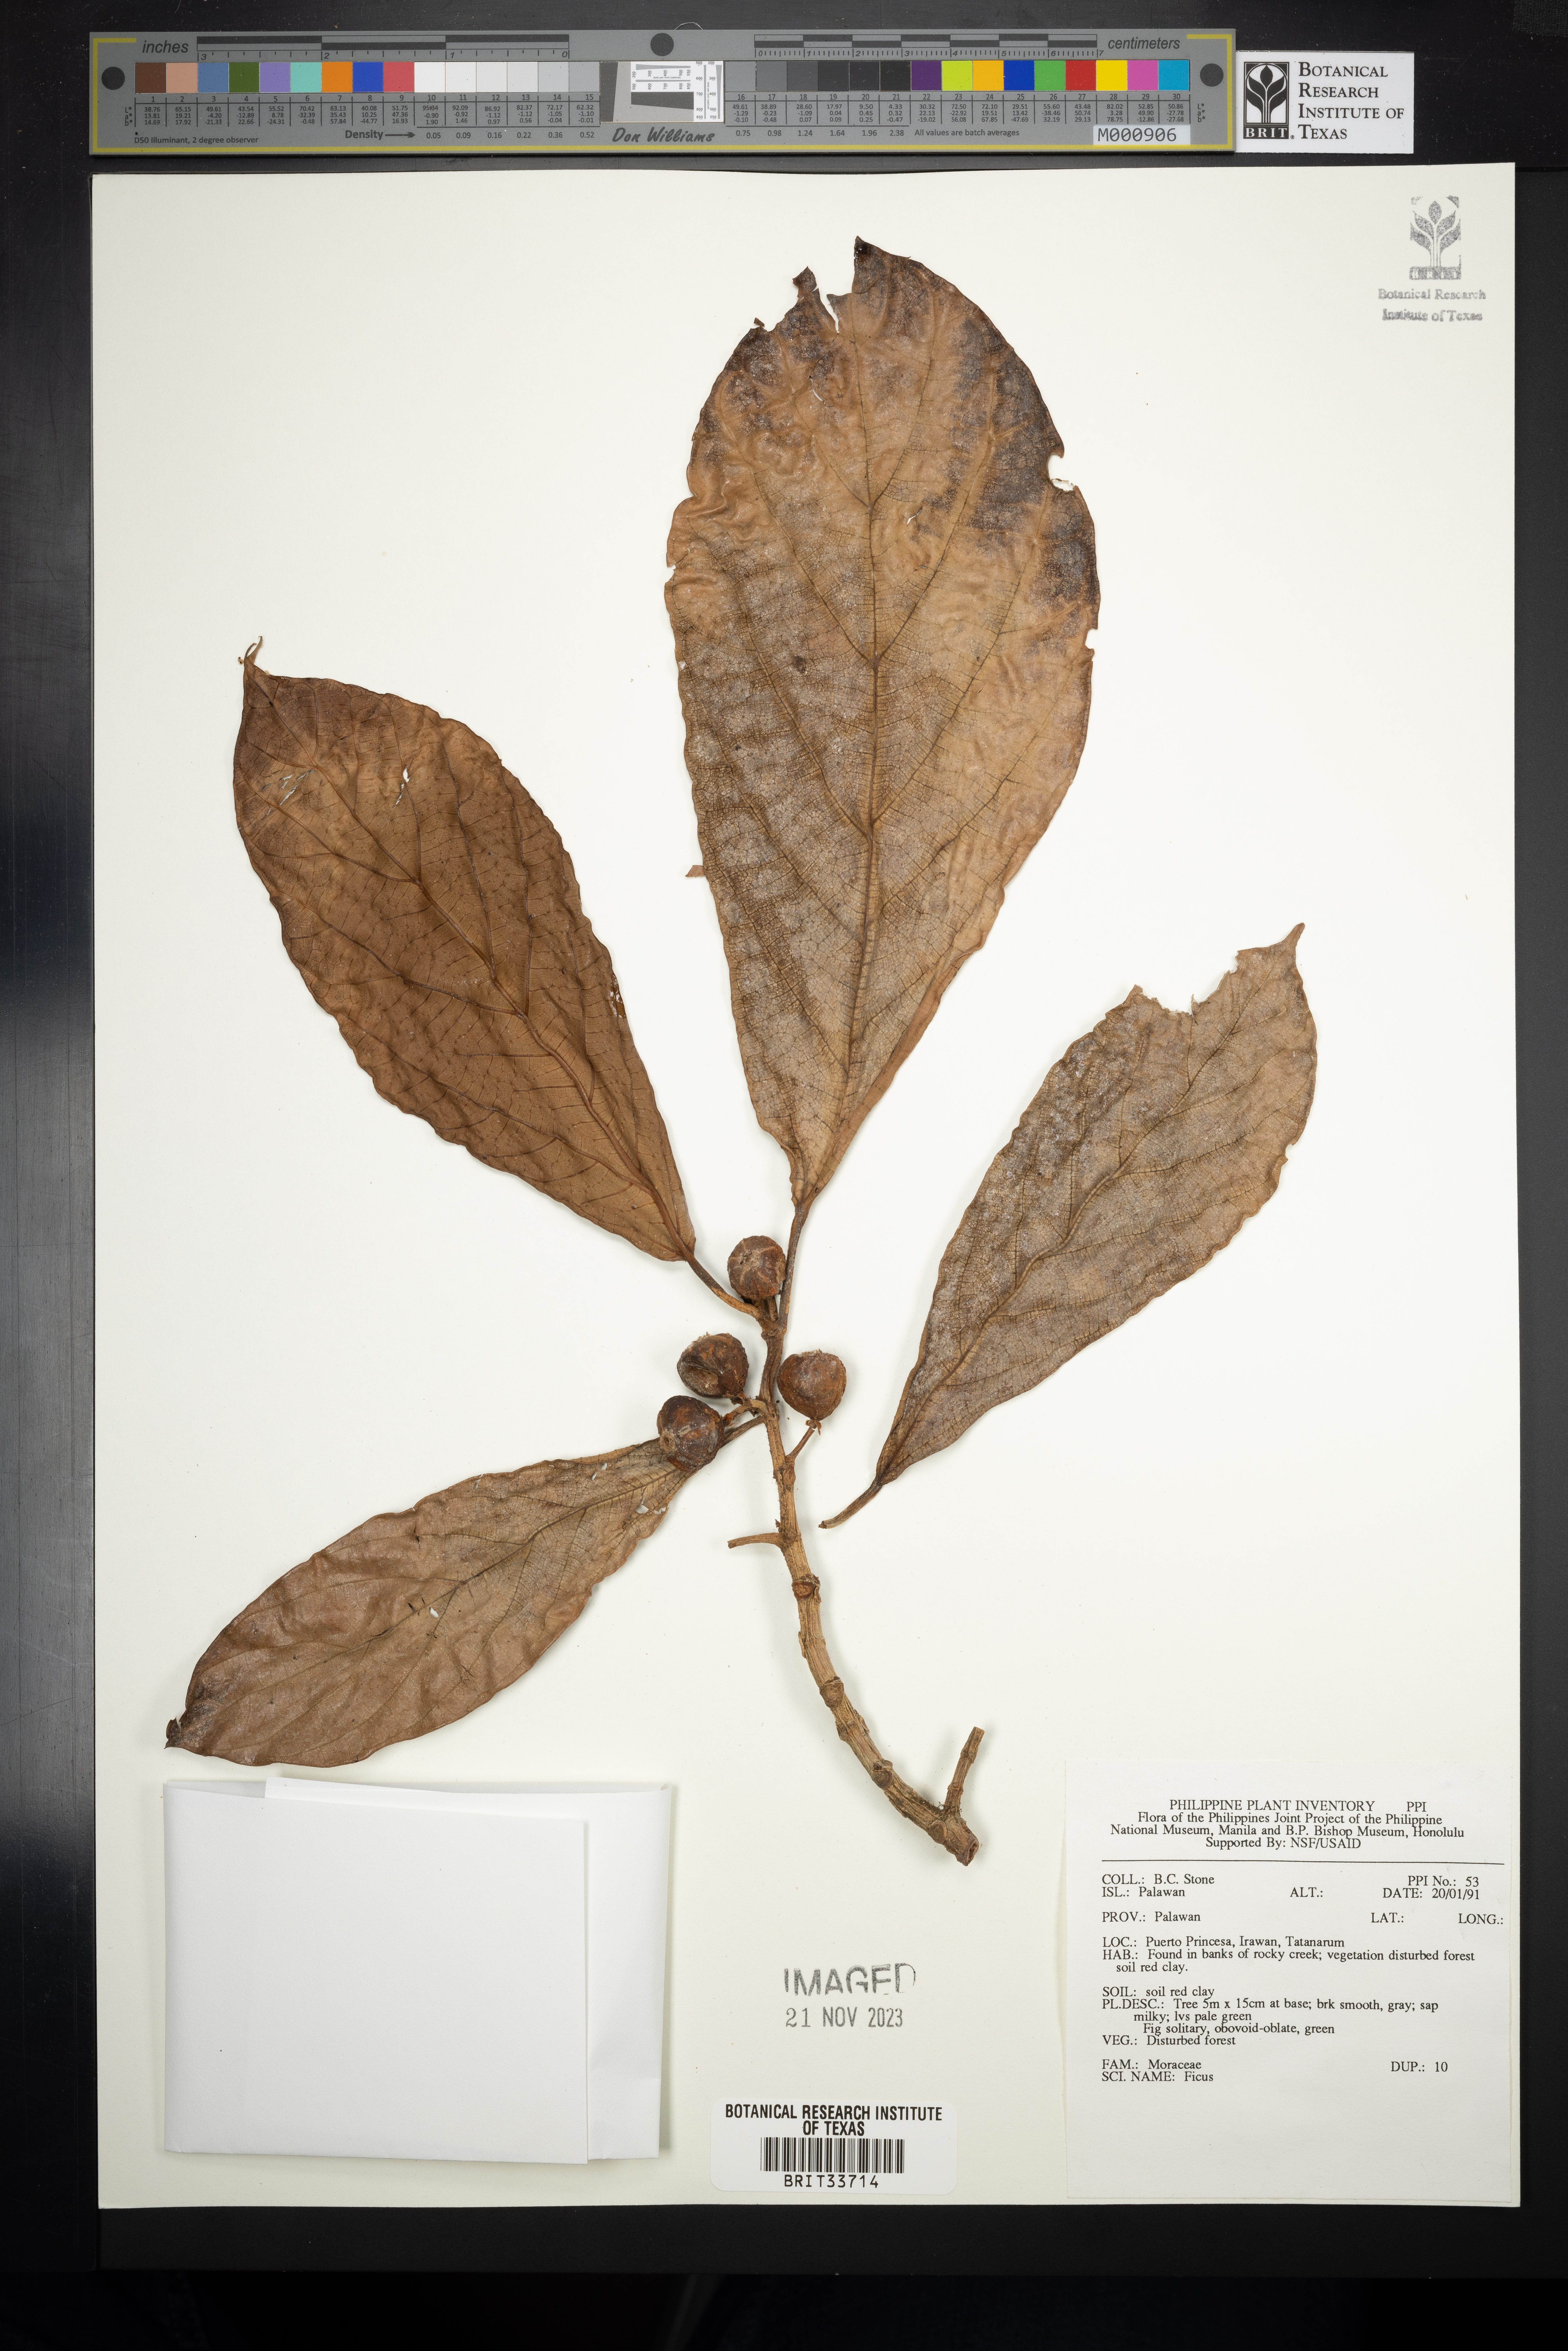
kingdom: Plantae
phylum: Tracheophyta
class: Magnoliopsida
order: Rosales
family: Moraceae
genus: Ficus
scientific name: Ficus
